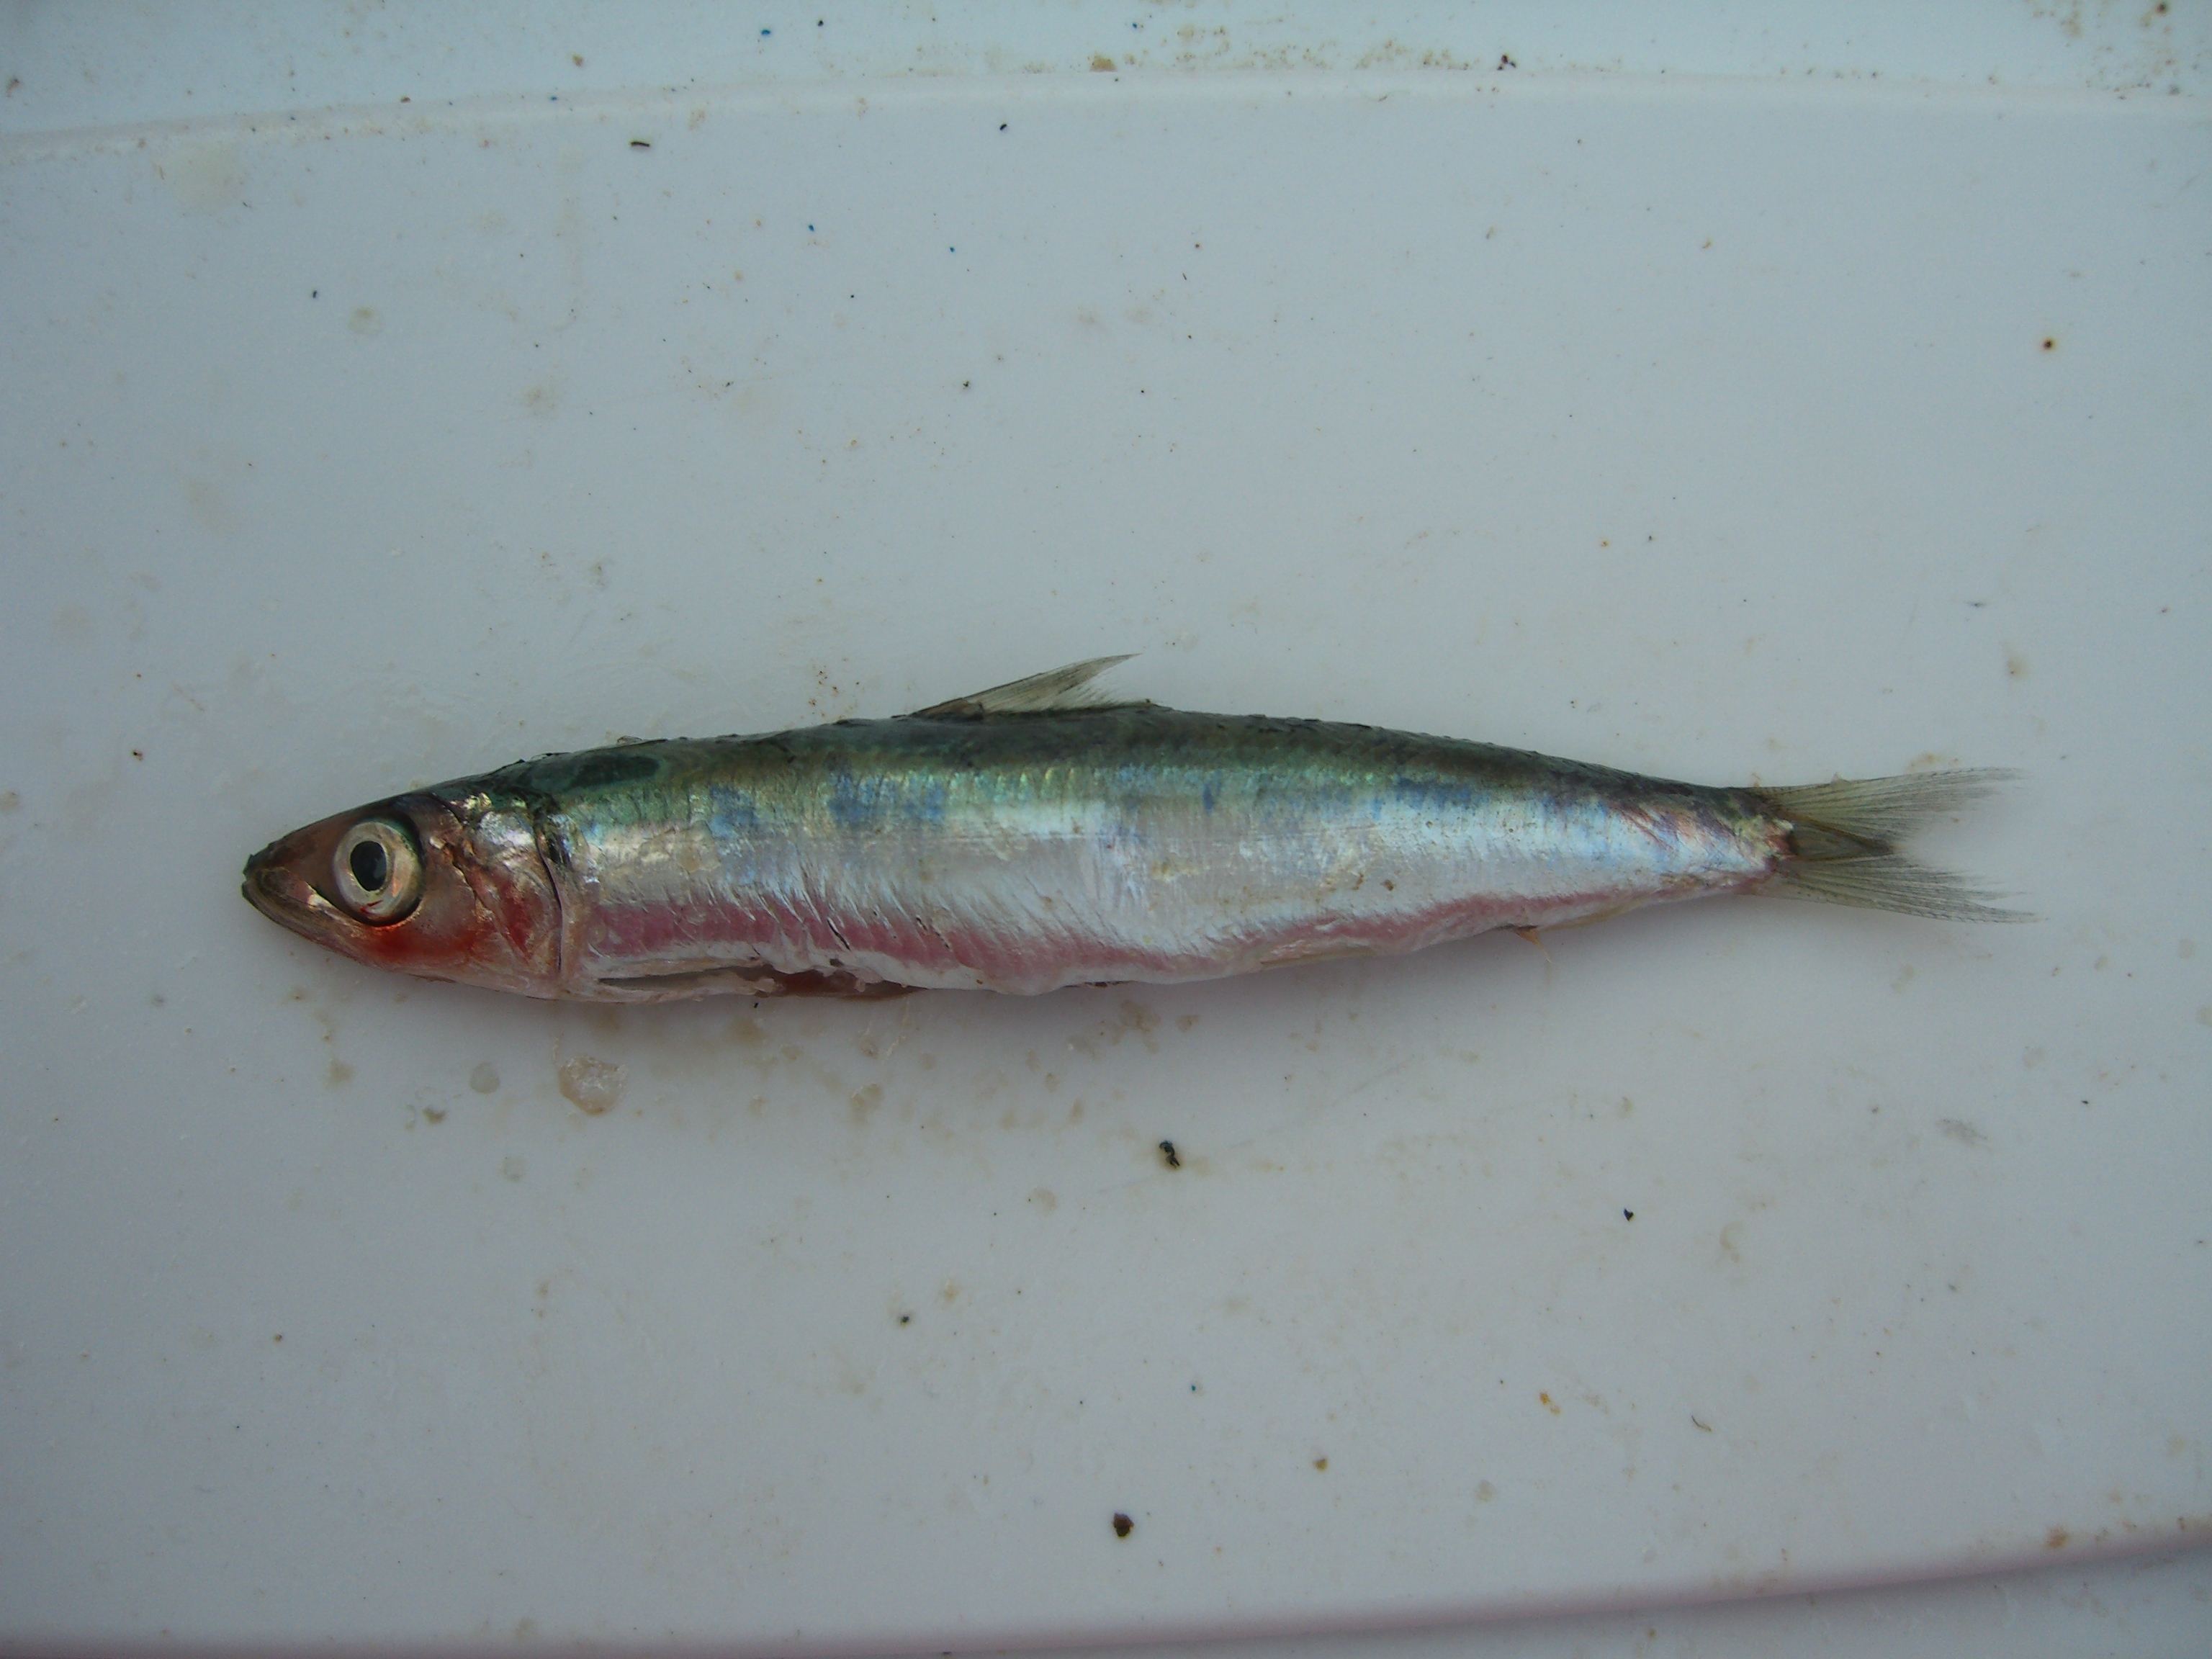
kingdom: Animalia
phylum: Chordata
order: Clupeiformes
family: Dussumieriidae
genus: Etrumeus
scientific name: Etrumeus sadina
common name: Red-eye round herring
